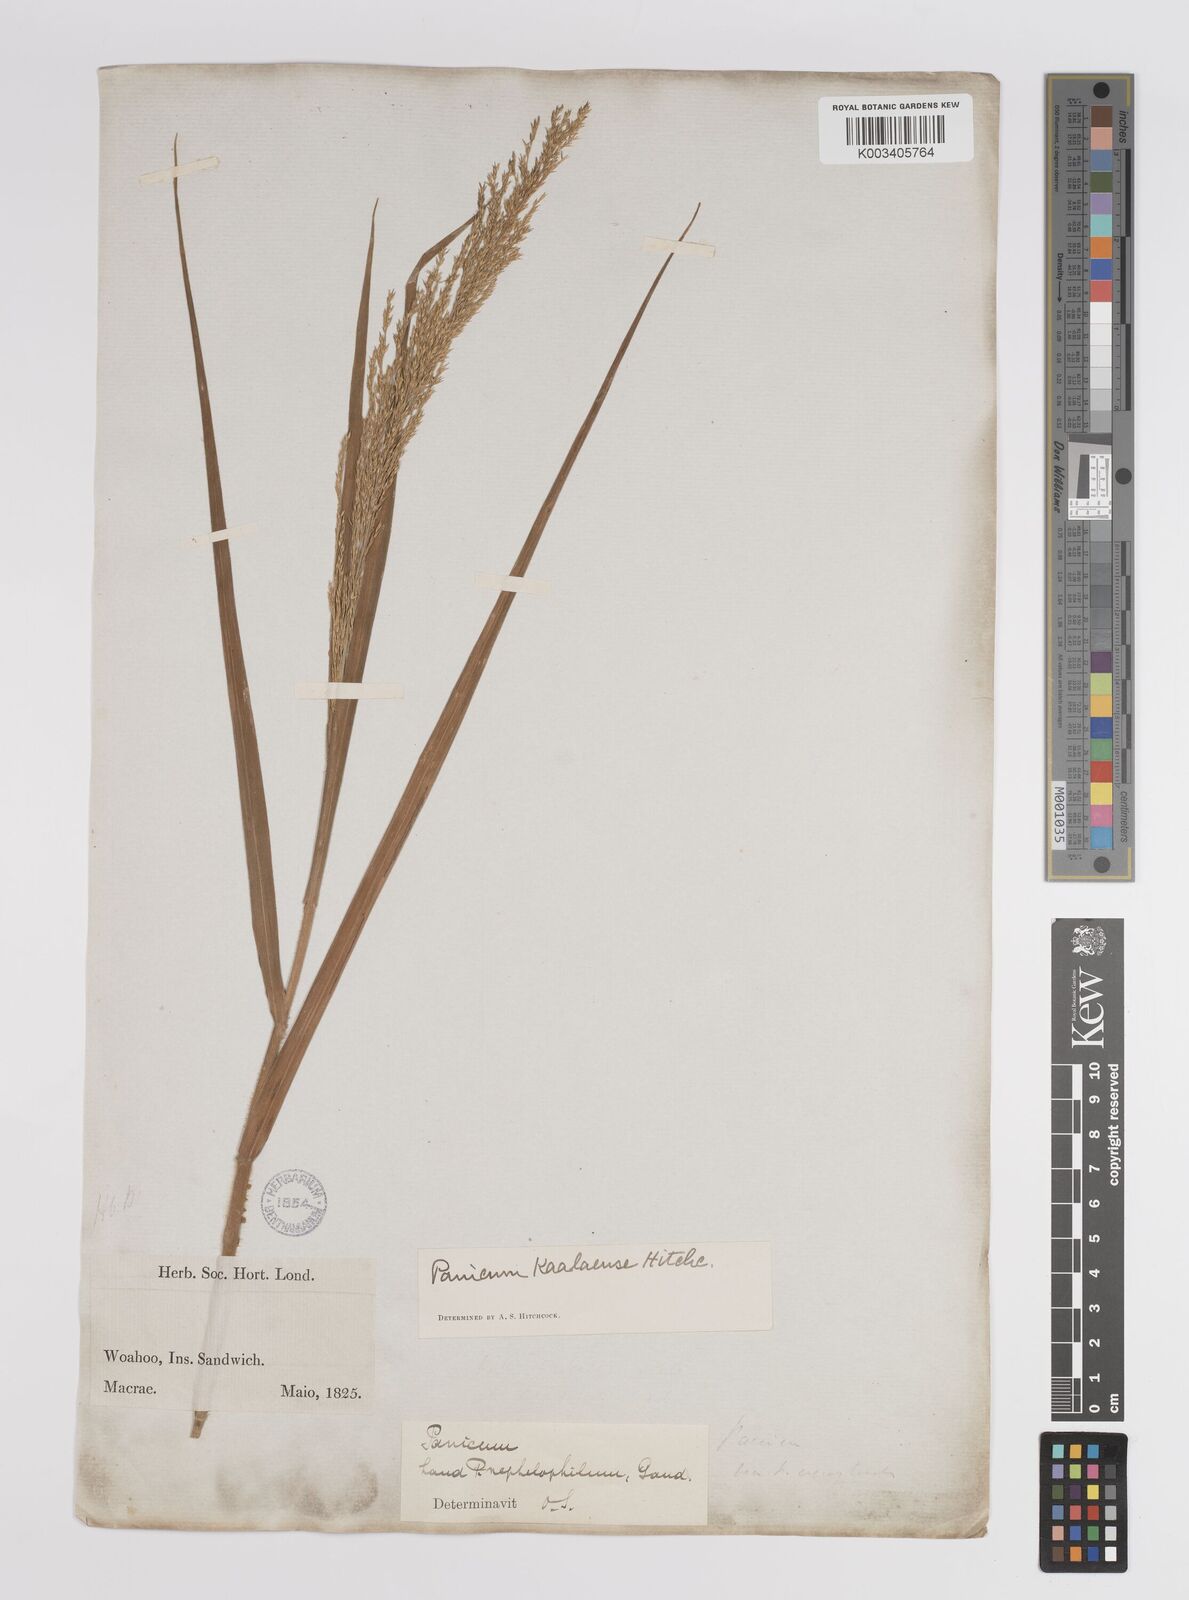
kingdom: Plantae
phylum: Tracheophyta
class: Liliopsida
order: Poales
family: Poaceae
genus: Panicum
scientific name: Panicum niihauense
